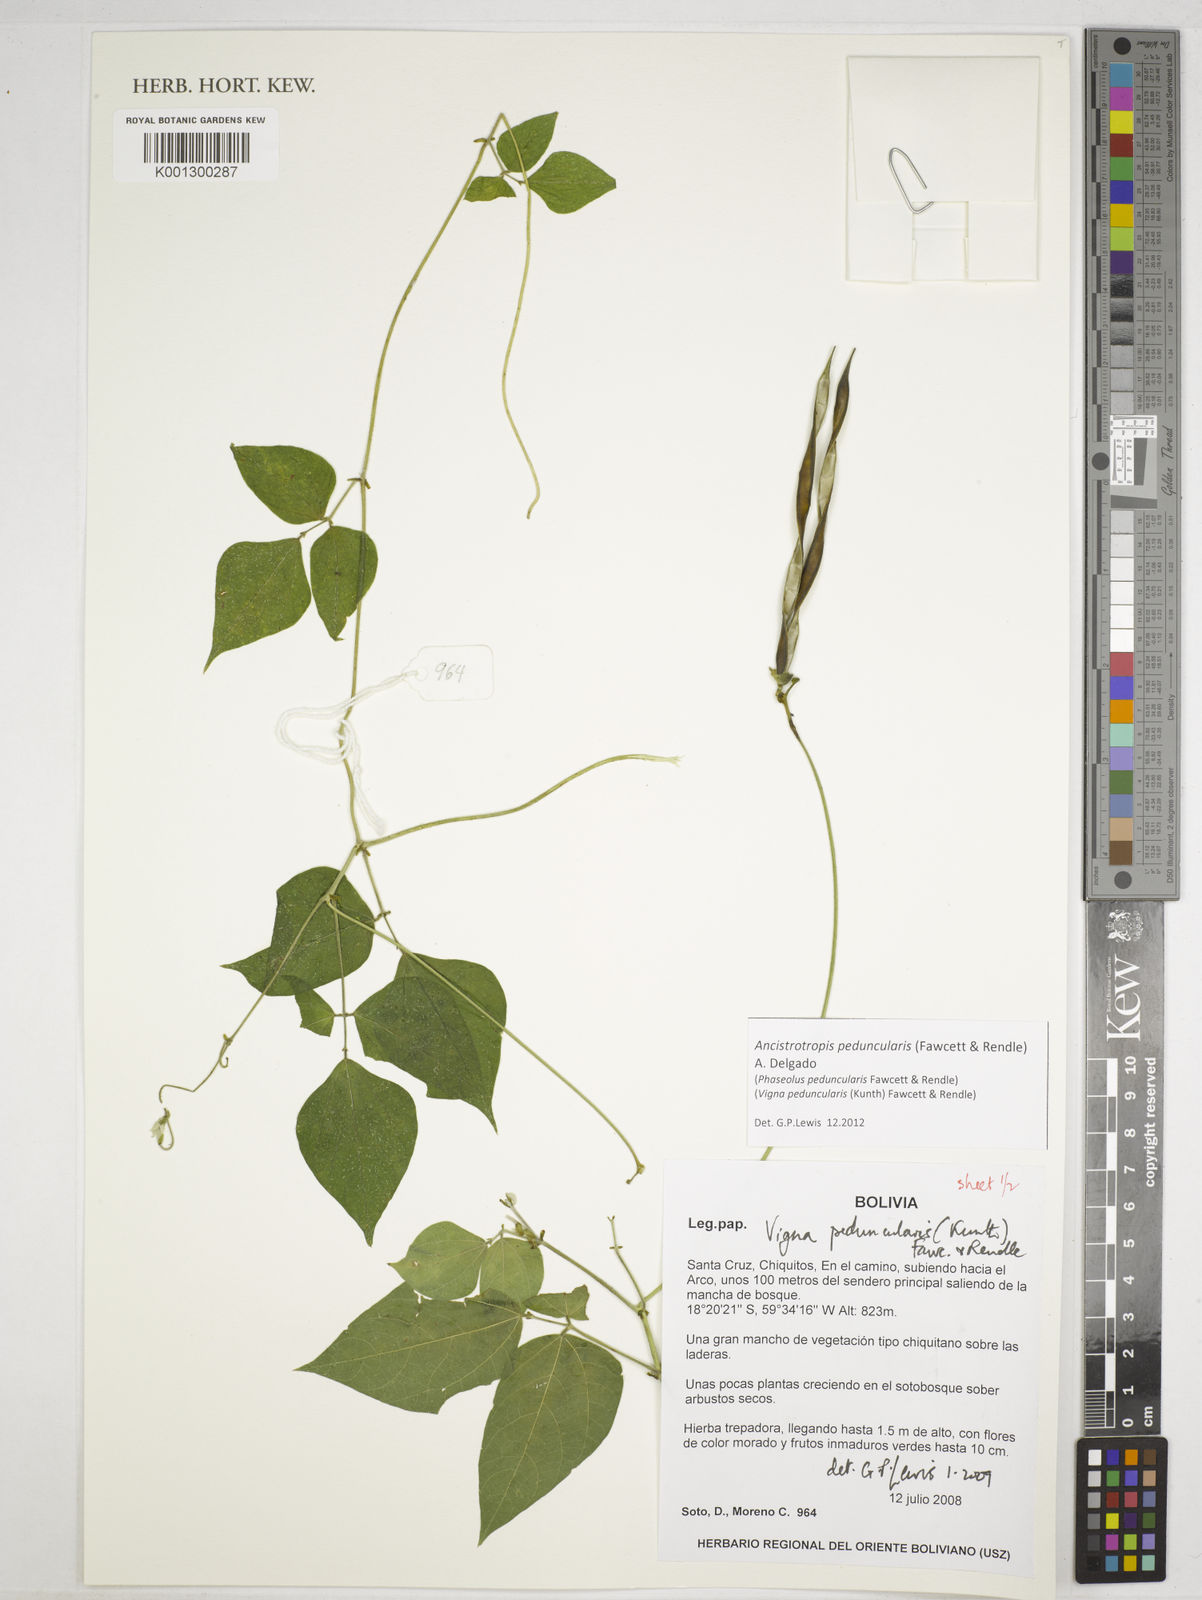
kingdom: Plantae
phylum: Tracheophyta
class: Magnoliopsida
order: Fabales
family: Fabaceae
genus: Ancistrotropis
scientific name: Ancistrotropis peduncularis
